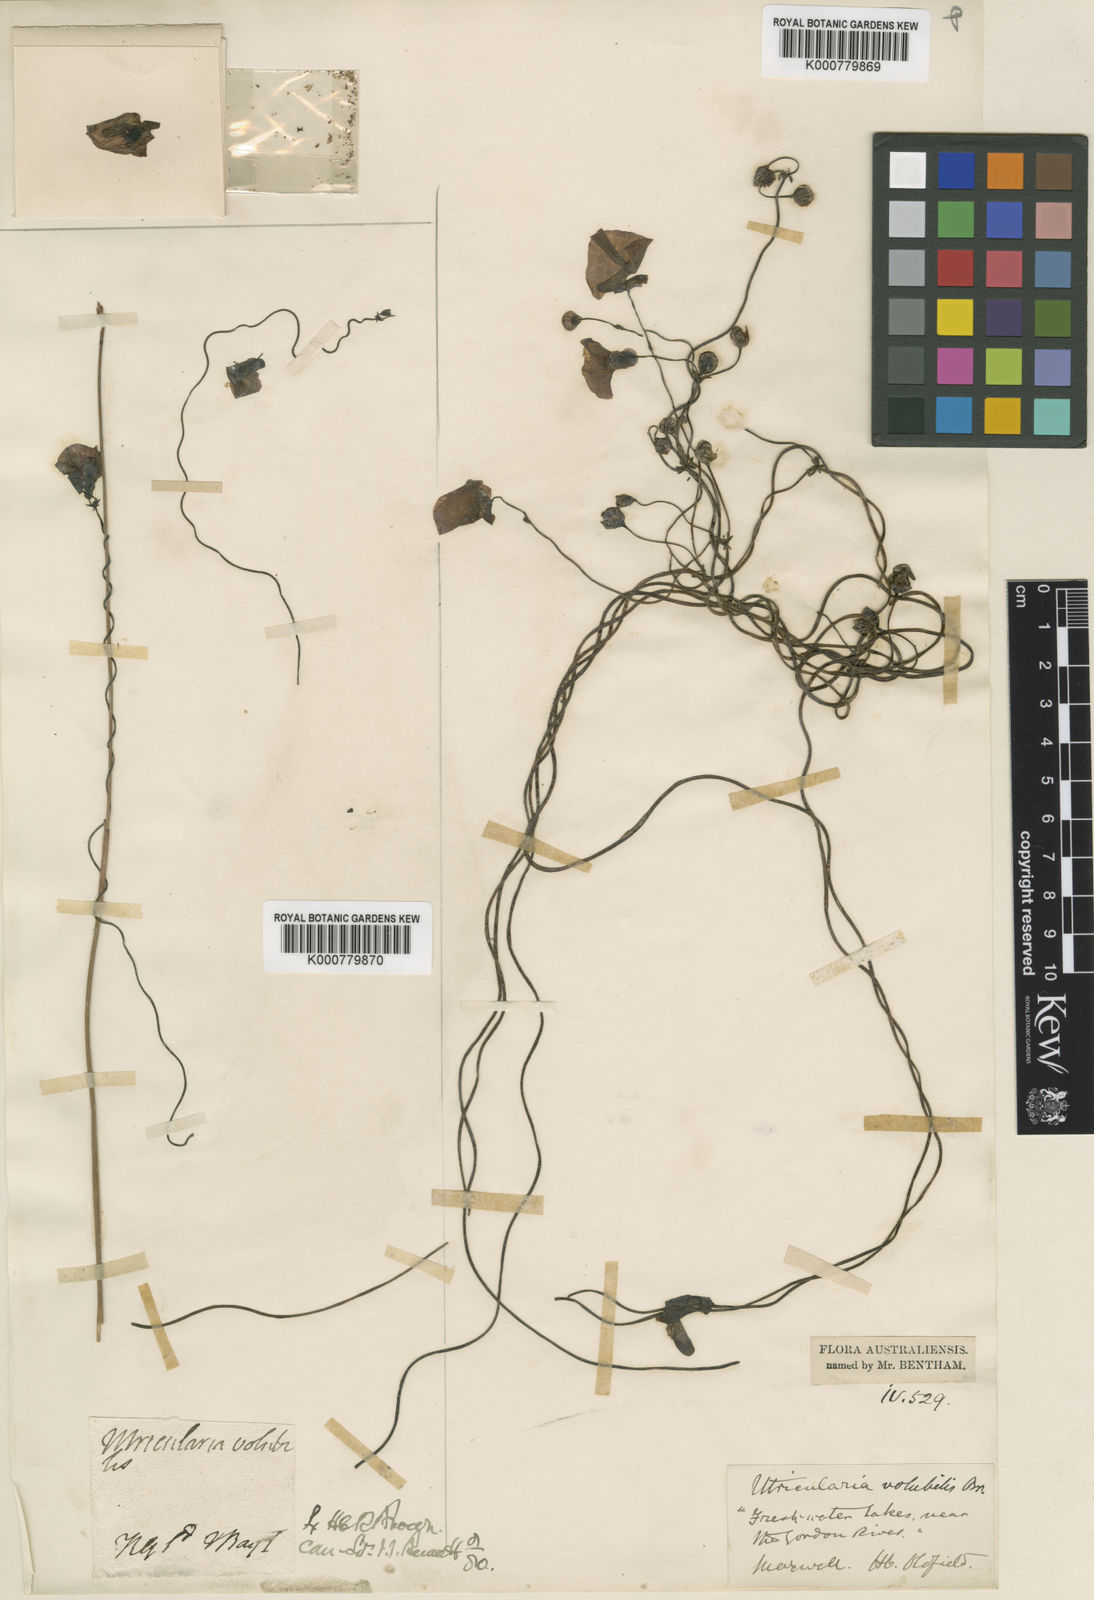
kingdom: Plantae
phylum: Tracheophyta
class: Magnoliopsida
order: Lamiales
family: Lentibulariaceae
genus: Utricularia
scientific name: Utricularia volubilis
